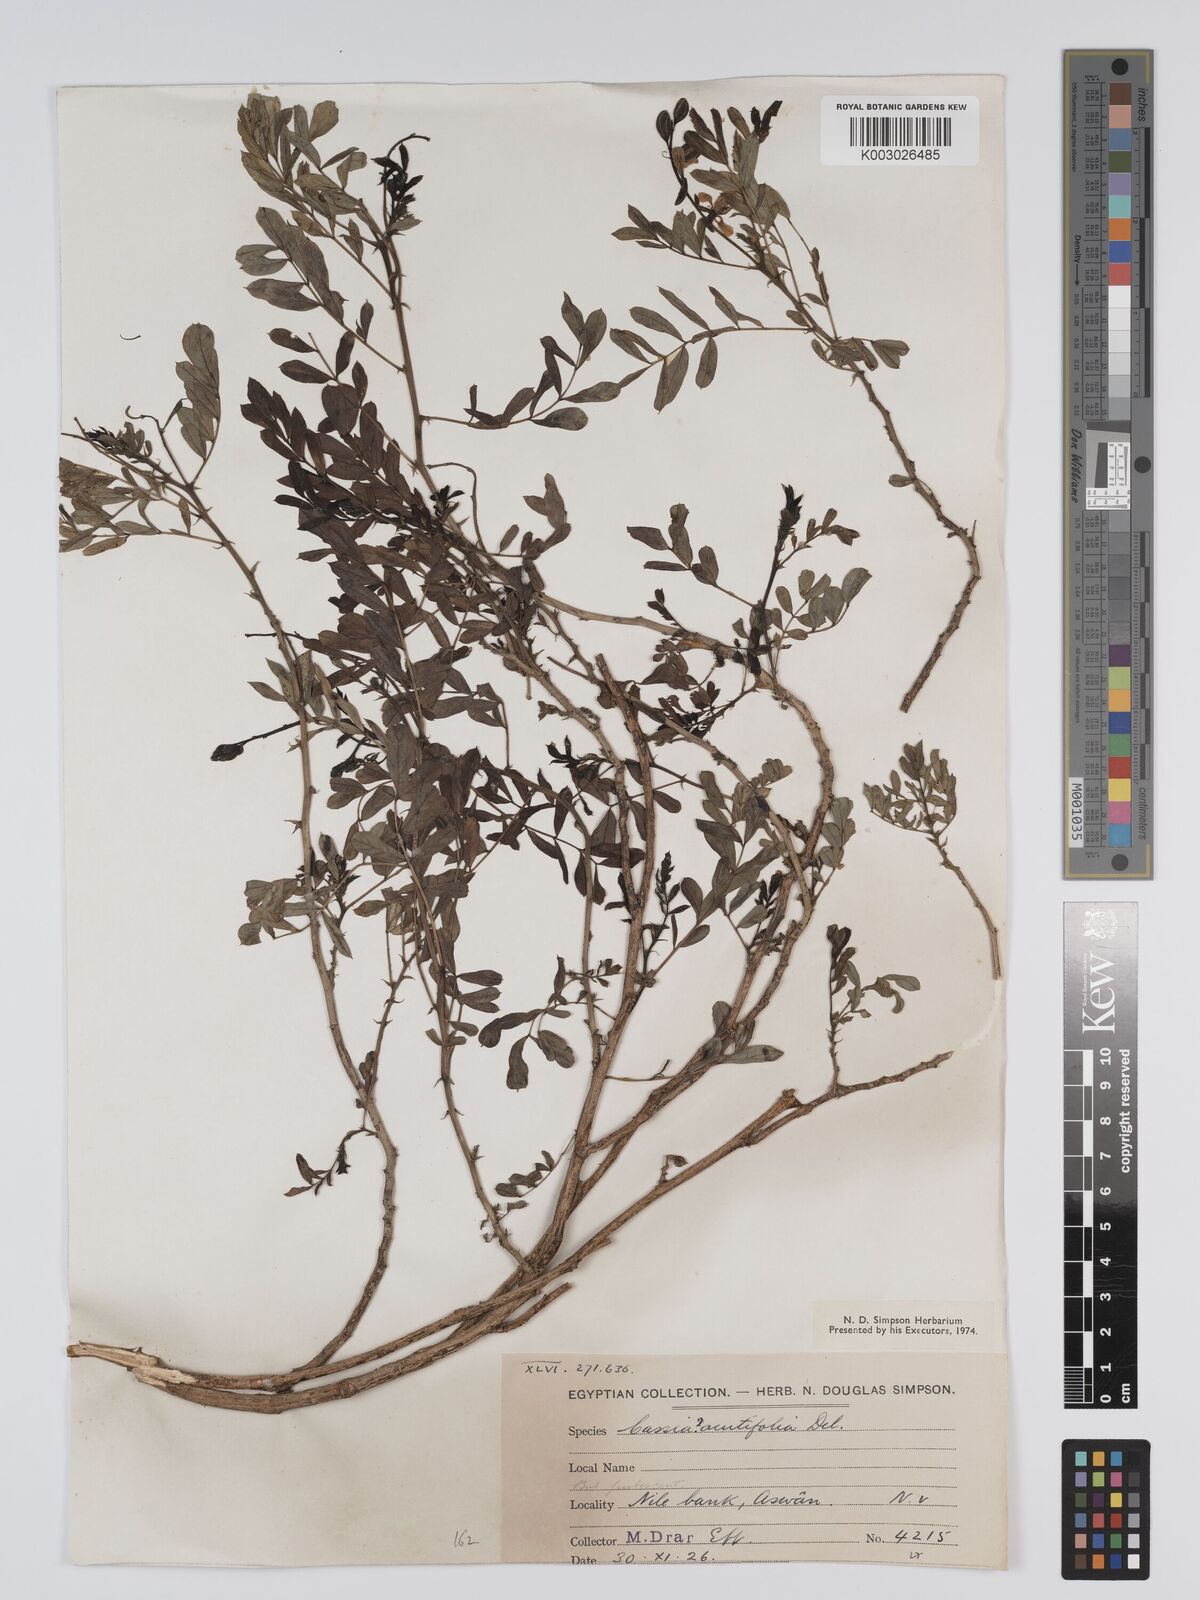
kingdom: Plantae
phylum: Tracheophyta
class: Magnoliopsida
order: Fabales
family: Fabaceae
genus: Senna
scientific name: Senna alexandrina
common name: True senna
